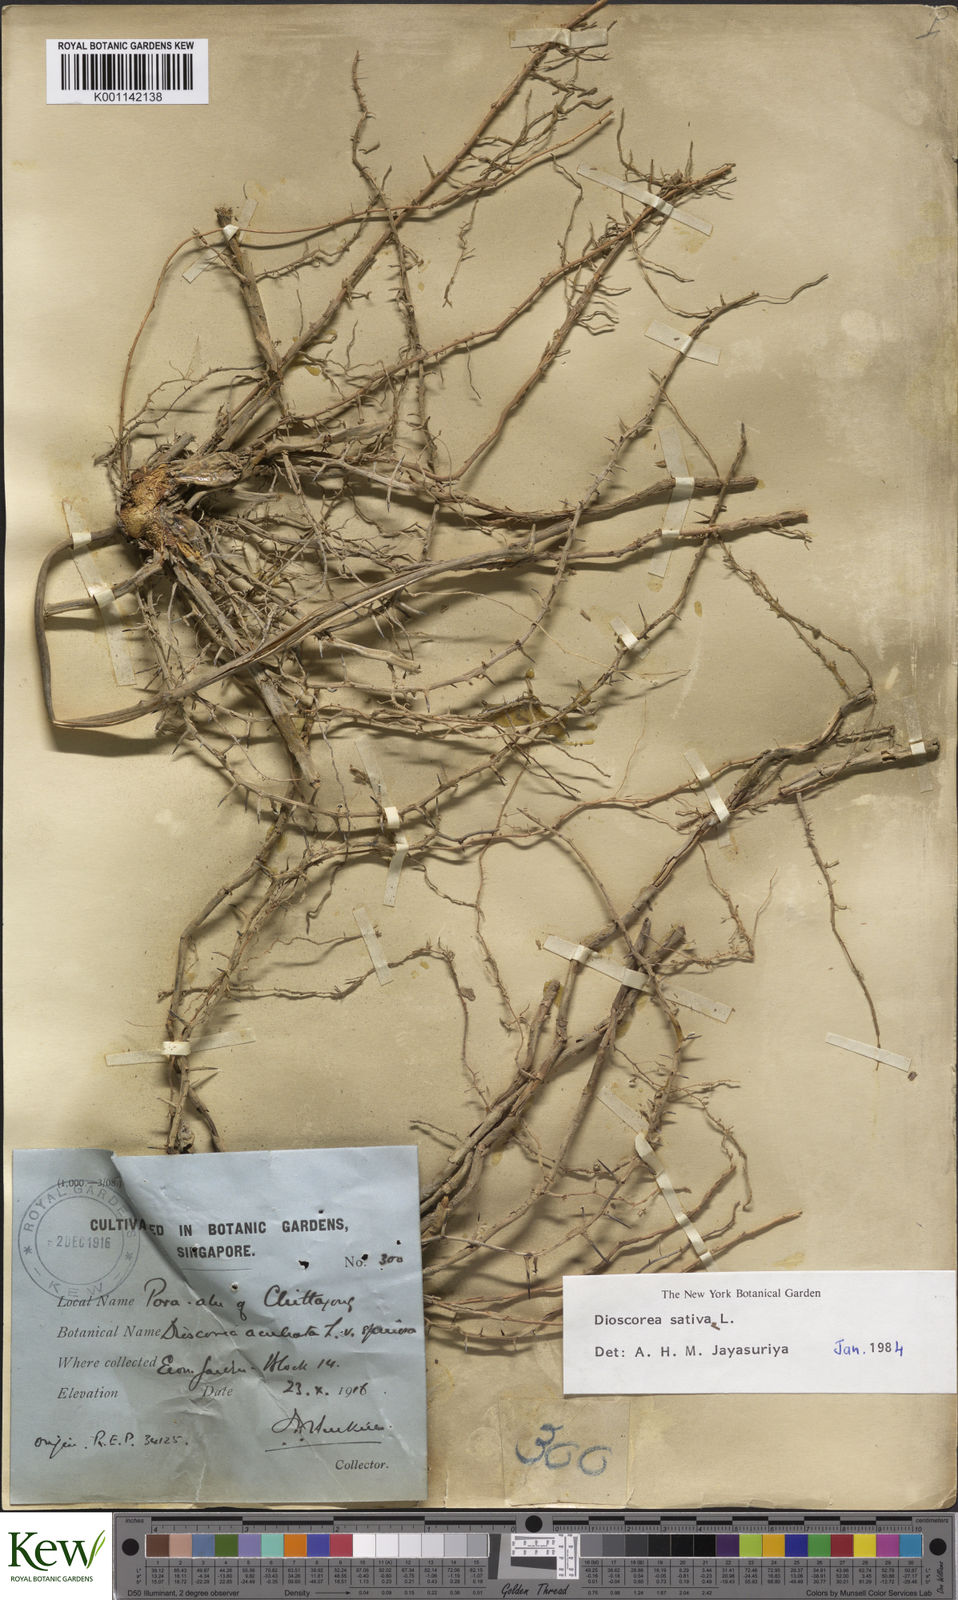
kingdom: Plantae
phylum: Tracheophyta
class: Liliopsida
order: Dioscoreales
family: Dioscoreaceae
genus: Dioscorea
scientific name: Dioscorea esculenta
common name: Chinese yam
